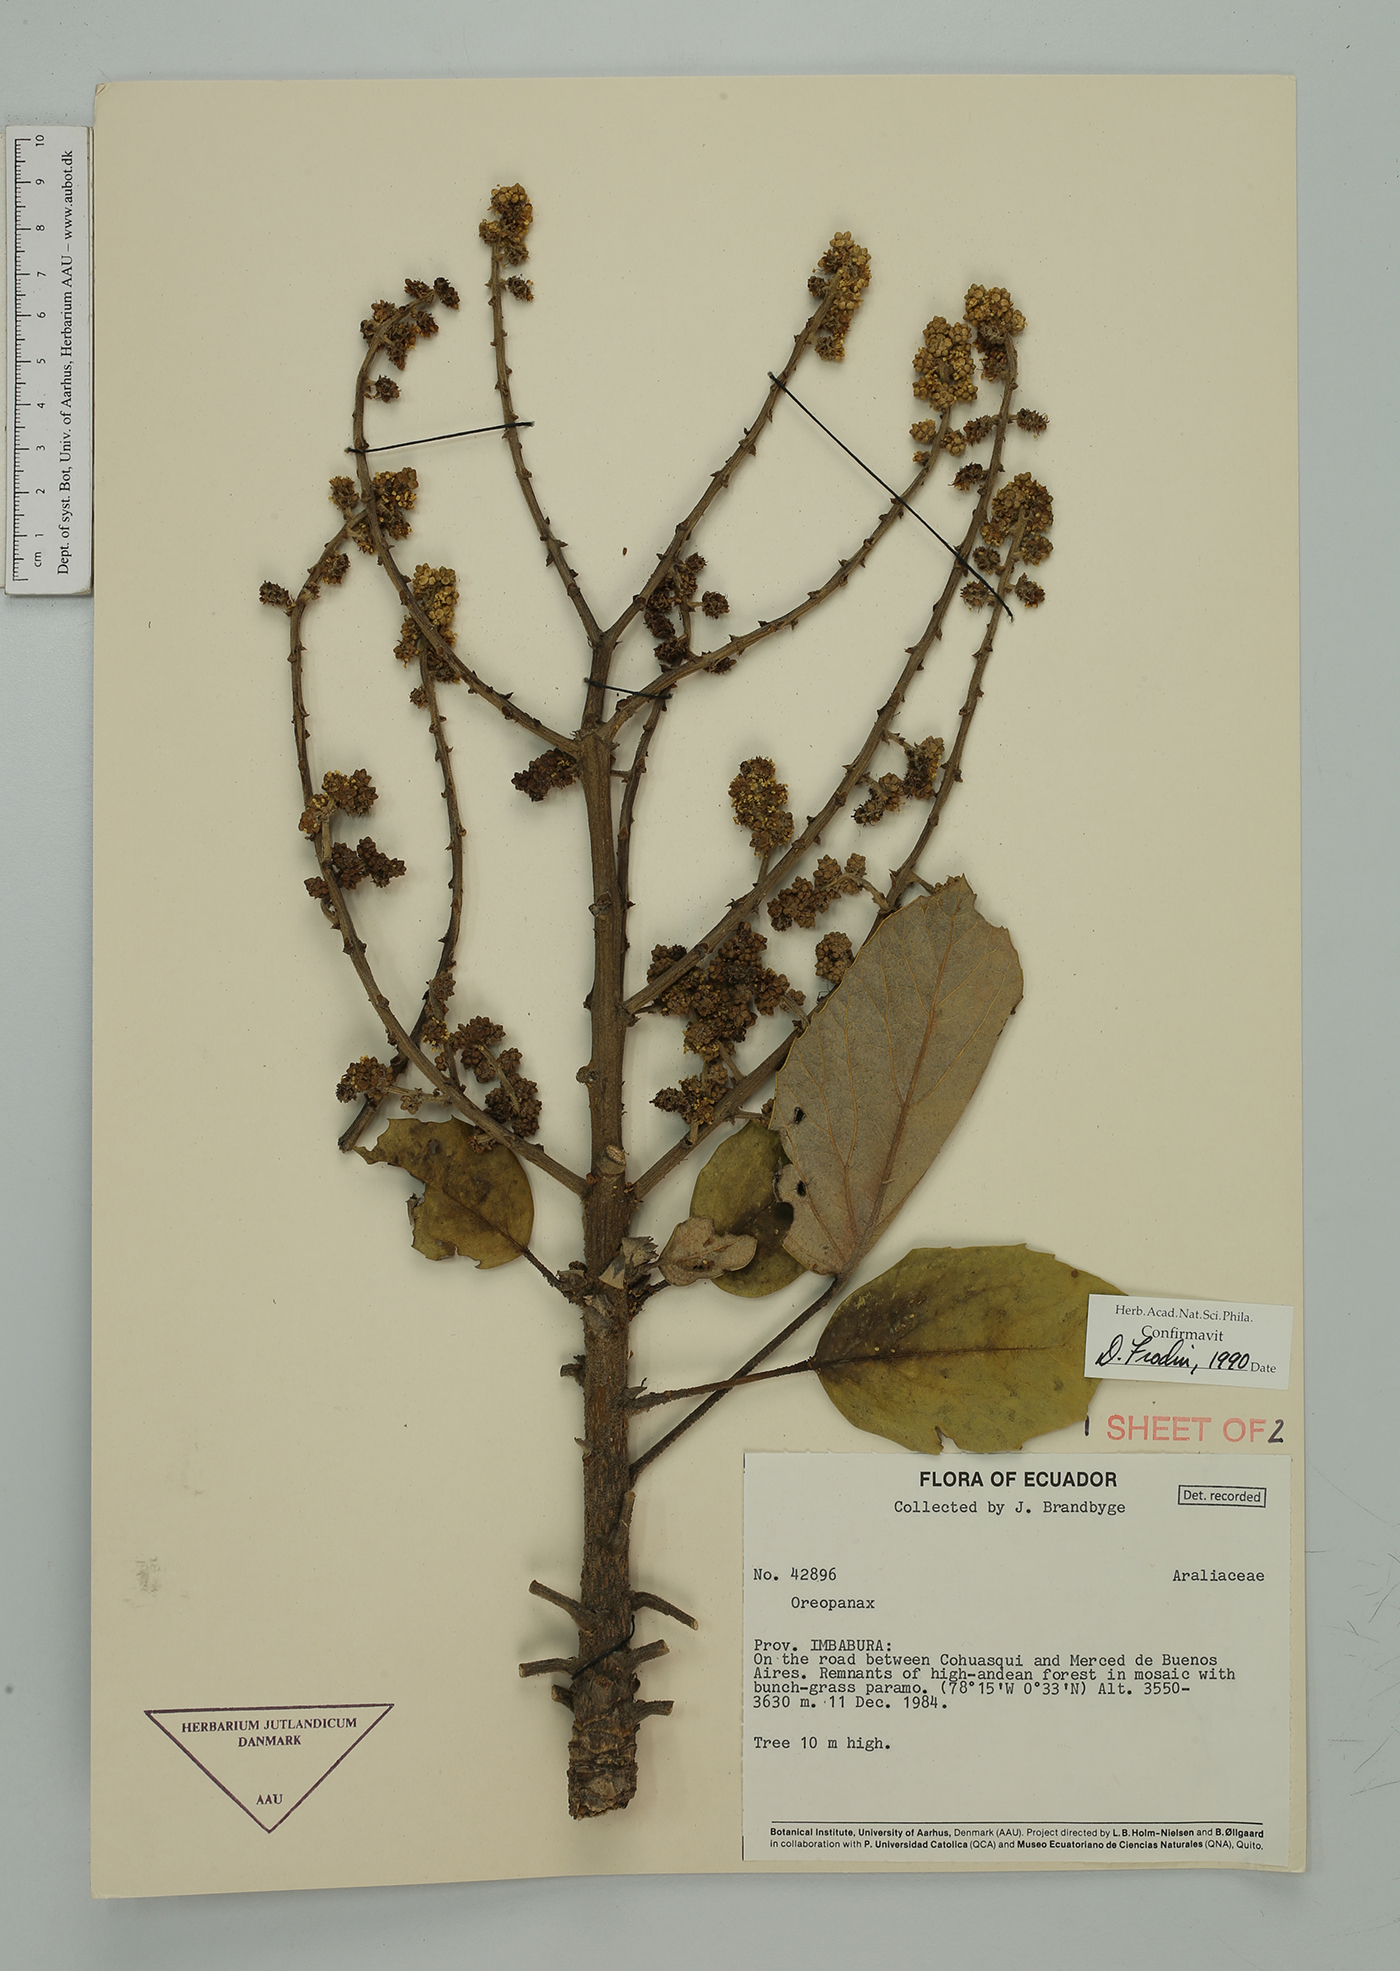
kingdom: Plantae
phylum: Tracheophyta
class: Magnoliopsida
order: Apiales
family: Araliaceae
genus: Oreopanax
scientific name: Oreopanax
